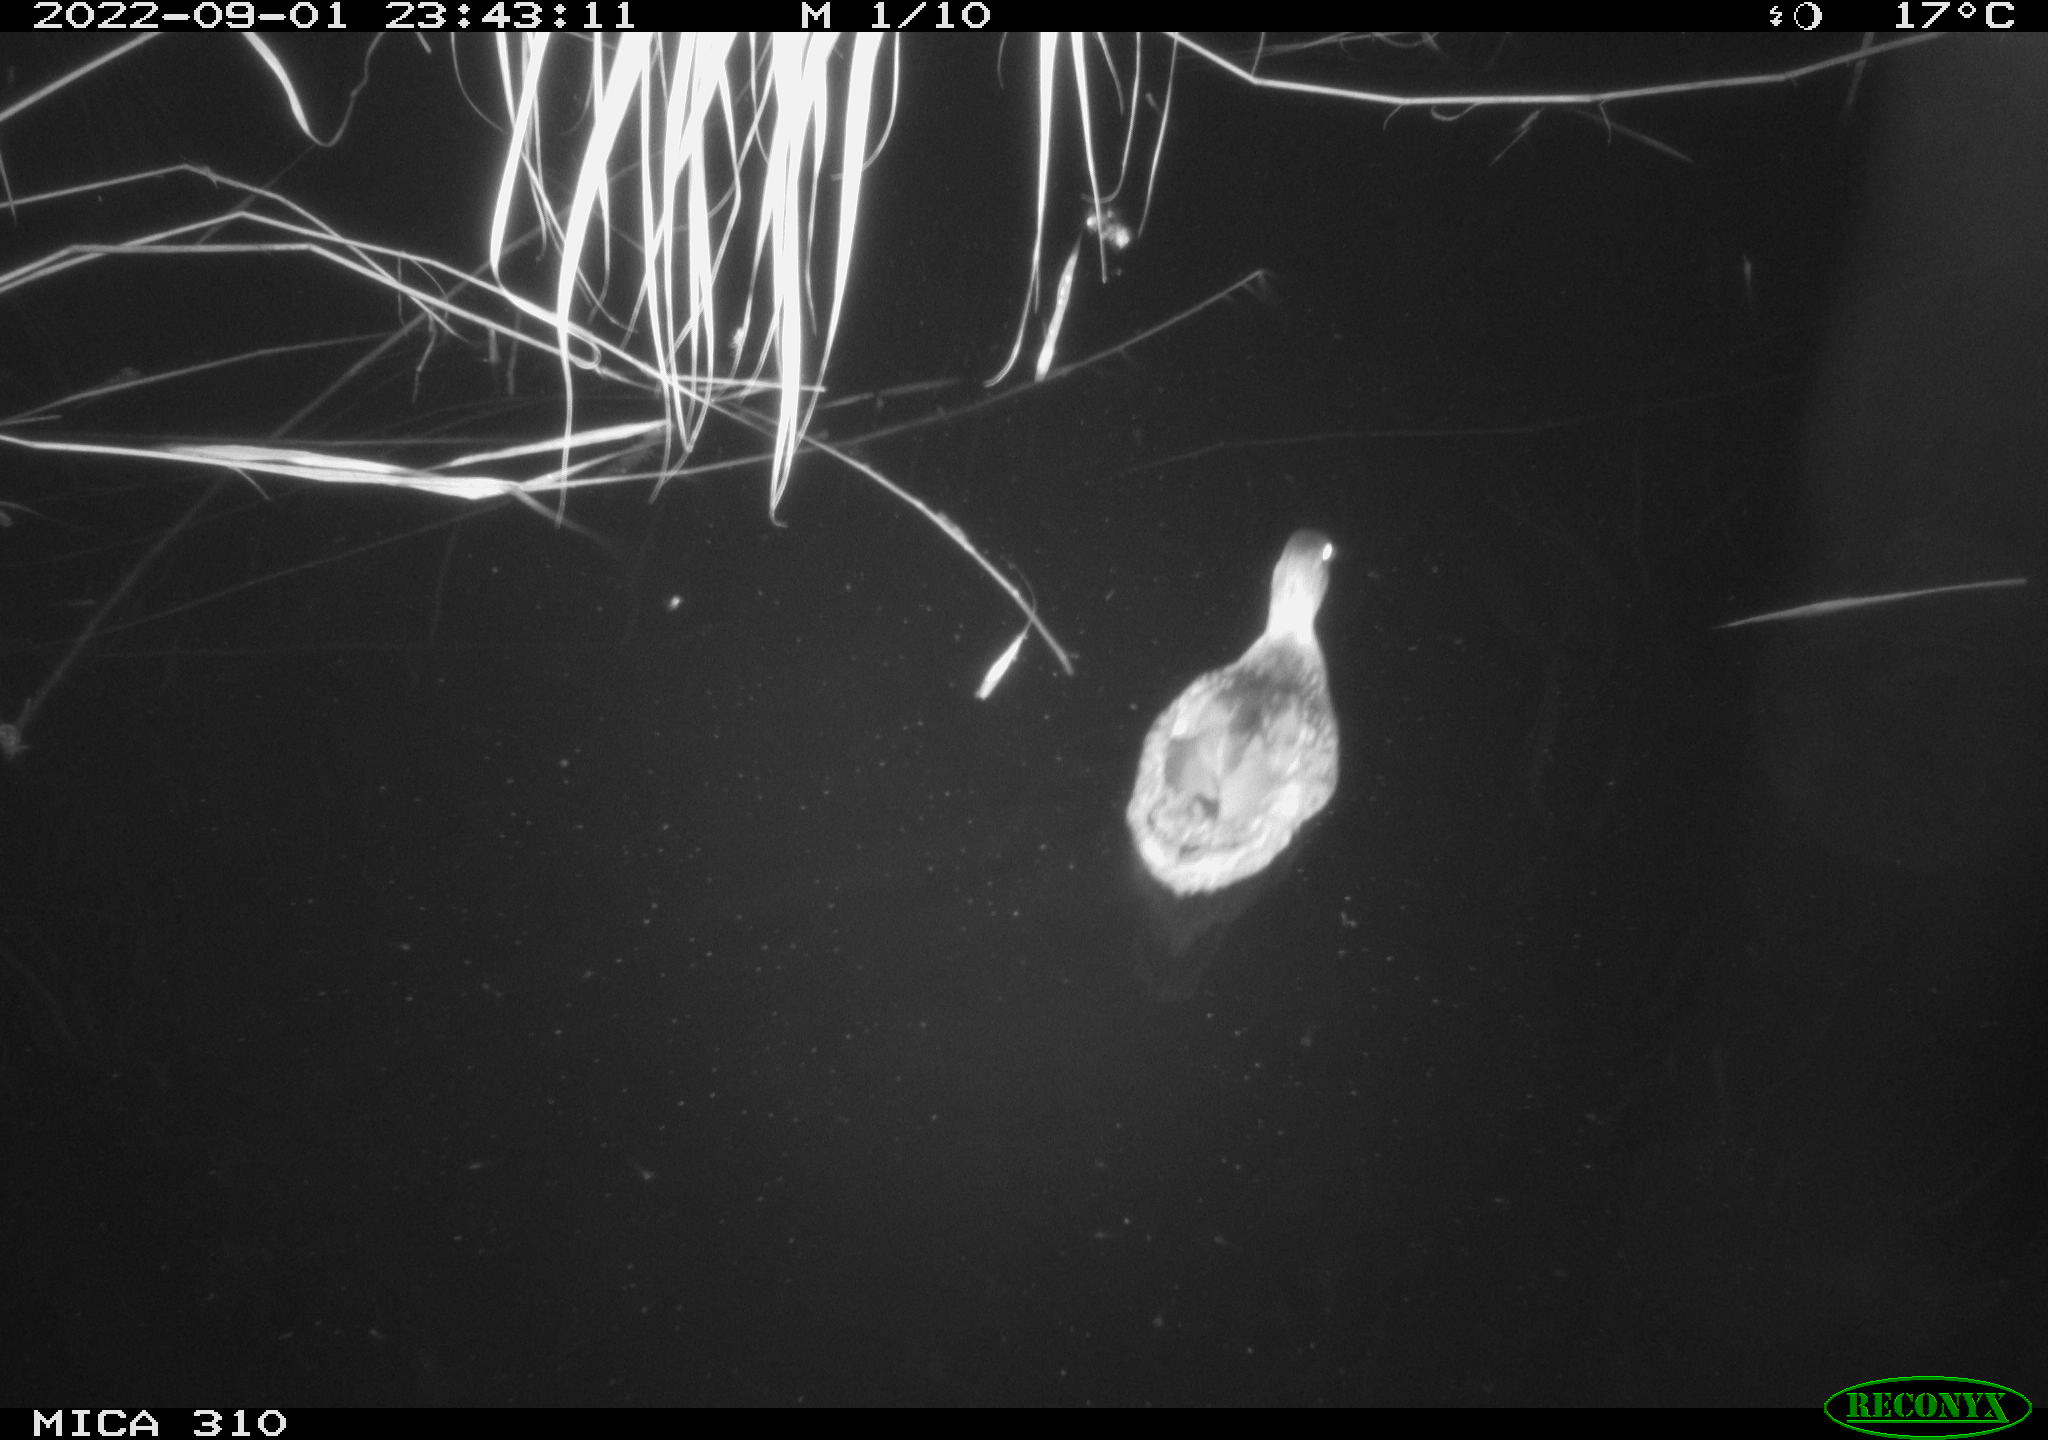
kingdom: Animalia
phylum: Chordata
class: Aves
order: Anseriformes
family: Anatidae
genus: Anas
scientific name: Anas platyrhynchos
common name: Mallard
